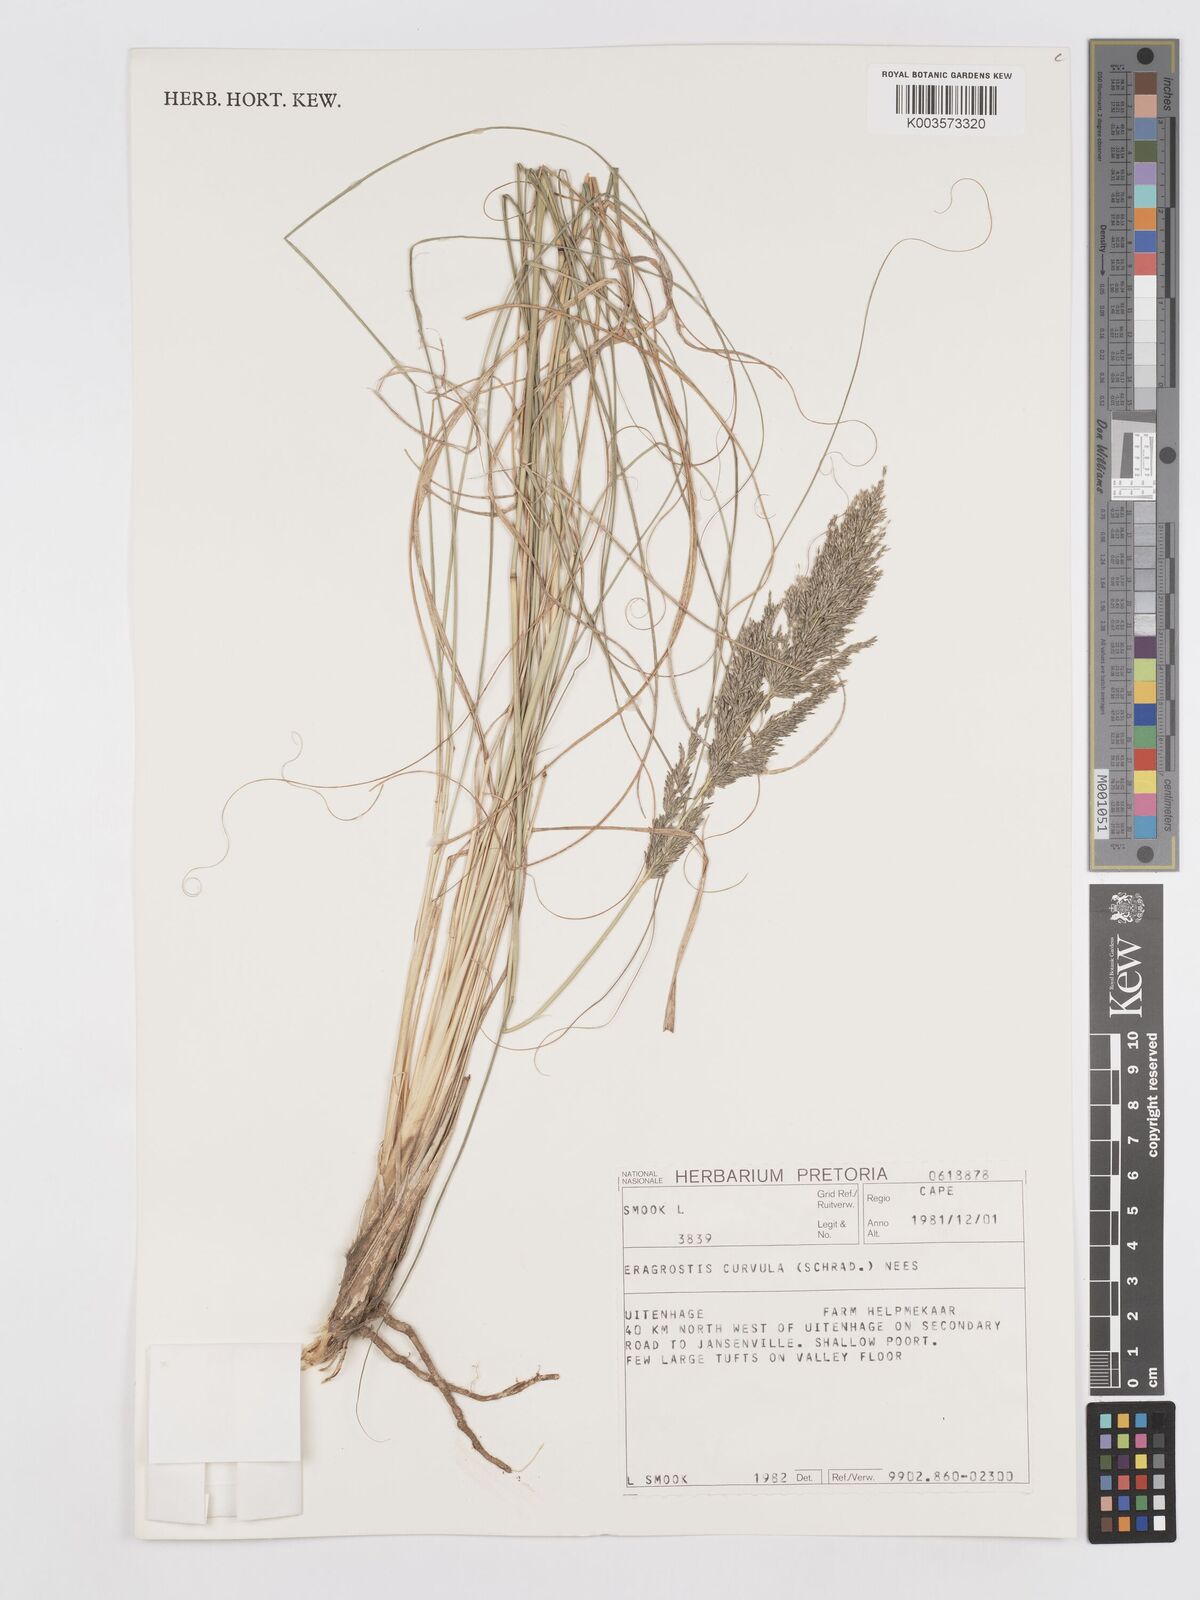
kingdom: Plantae
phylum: Tracheophyta
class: Liliopsida
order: Poales
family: Poaceae
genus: Eragrostis
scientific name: Eragrostis curvula
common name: African love-grass
